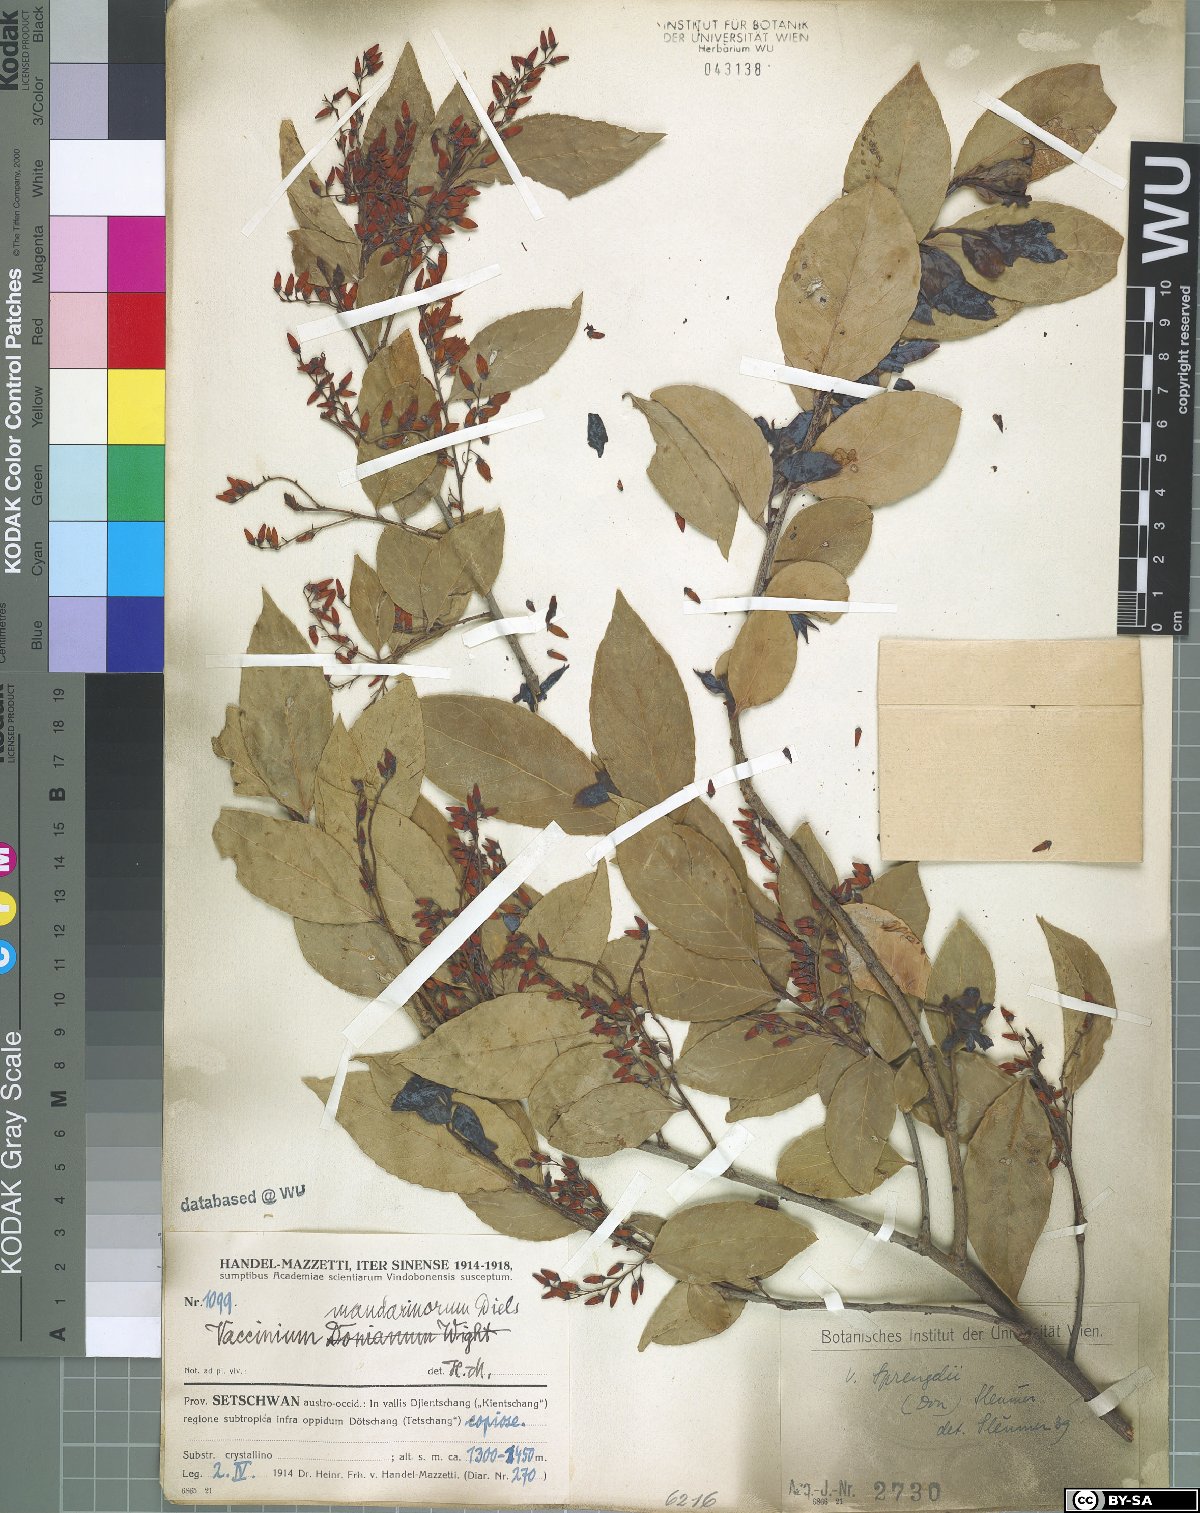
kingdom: Plantae
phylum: Tracheophyta
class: Magnoliopsida
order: Ericales
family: Ericaceae
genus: Vaccinium
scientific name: Vaccinium sprengelii
